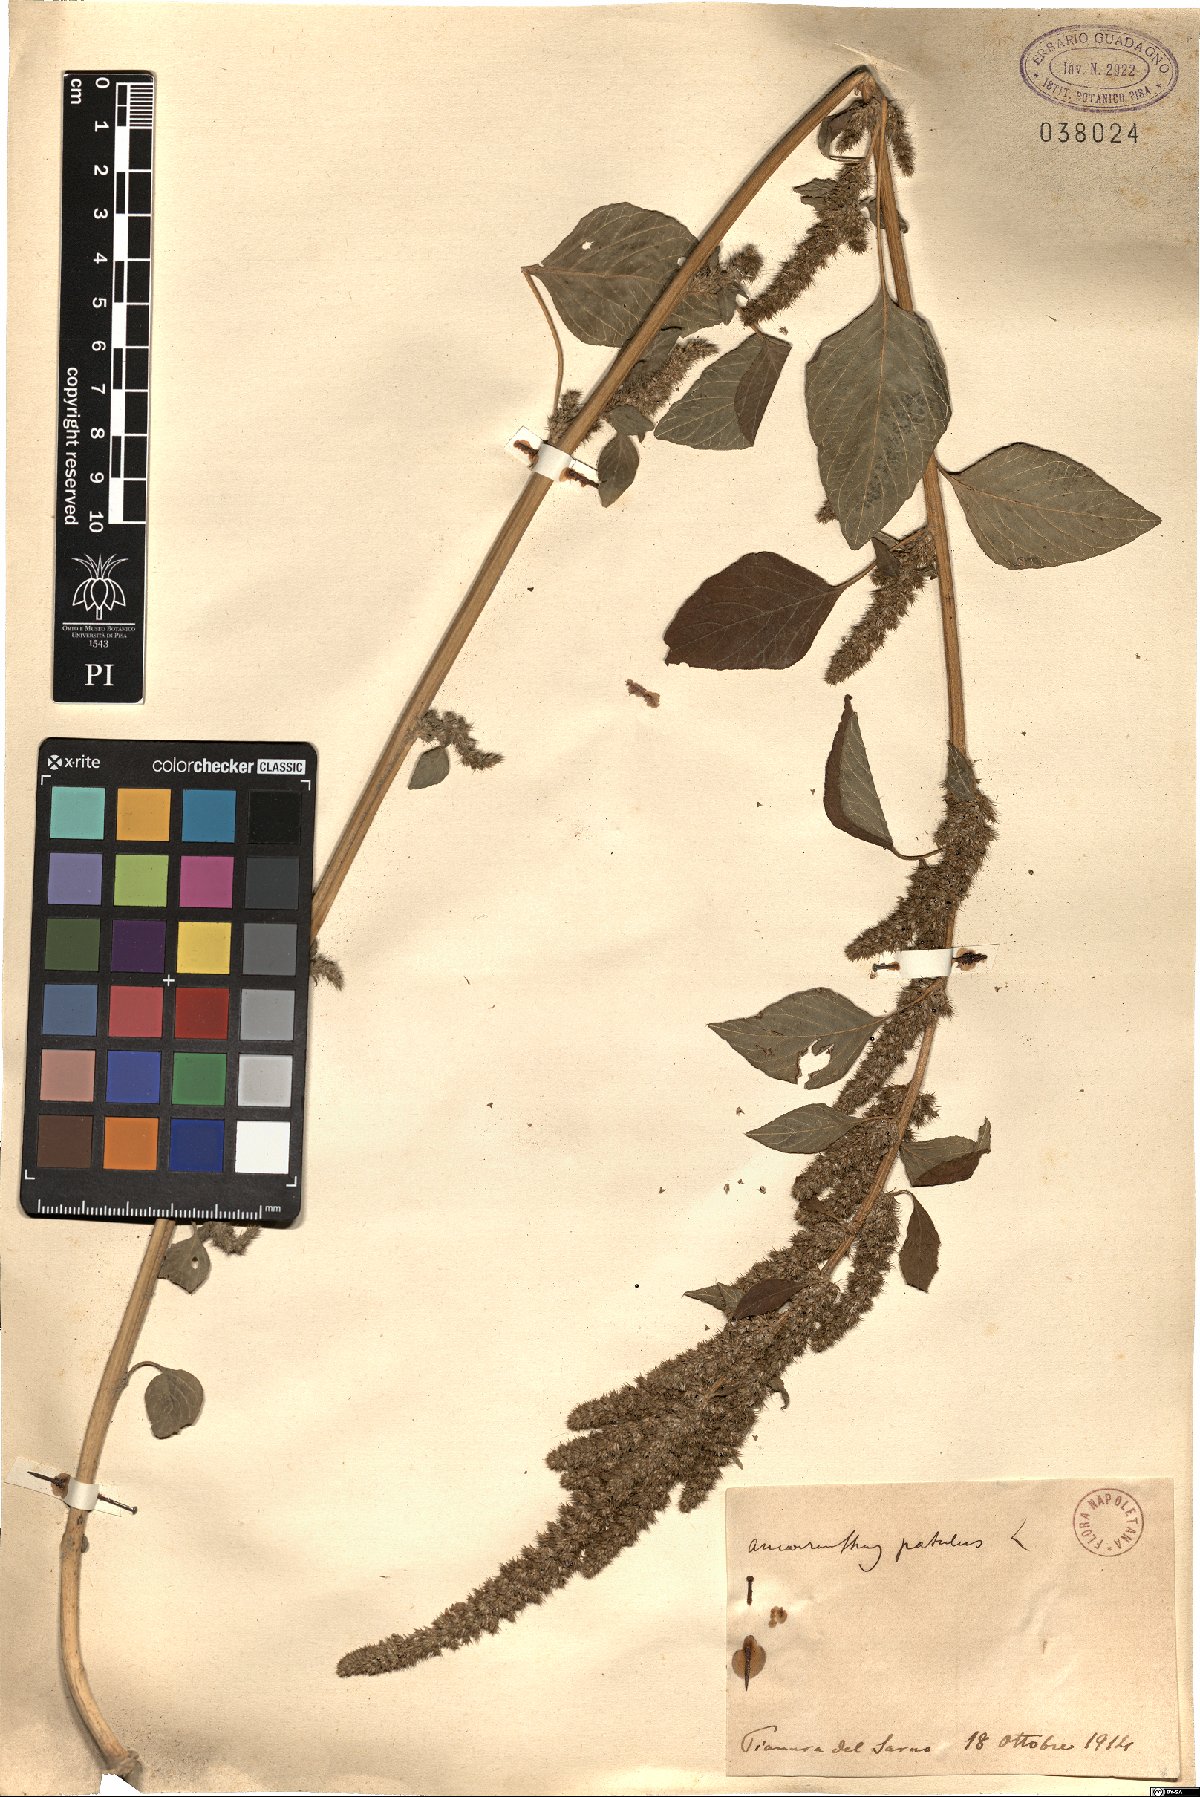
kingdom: Plantae
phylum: Tracheophyta
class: Magnoliopsida
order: Caryophyllales
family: Amaranthaceae
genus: Amaranthus
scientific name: Amaranthus hybridus
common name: Green amaranth
